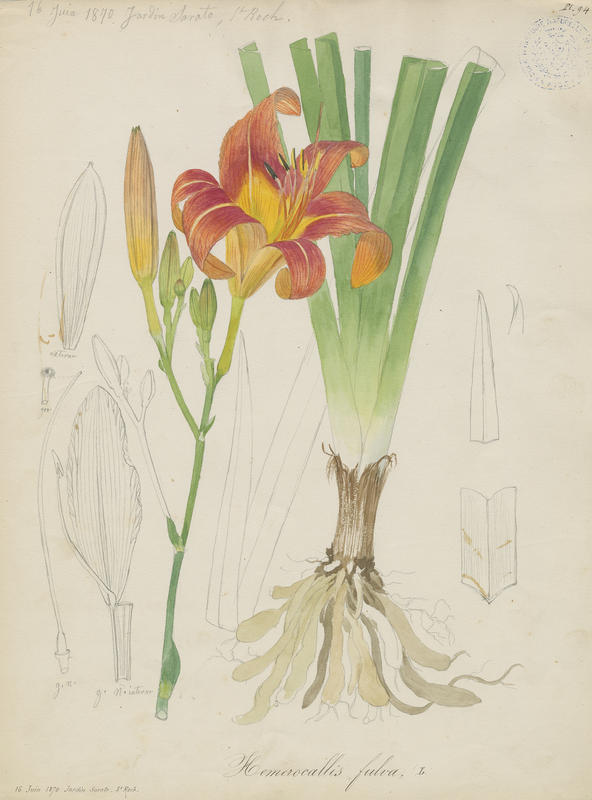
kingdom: Plantae
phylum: Tracheophyta
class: Liliopsida
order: Asparagales
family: Asphodelaceae
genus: Hemerocallis
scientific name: Hemerocallis fulva
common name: Orange day-lily
